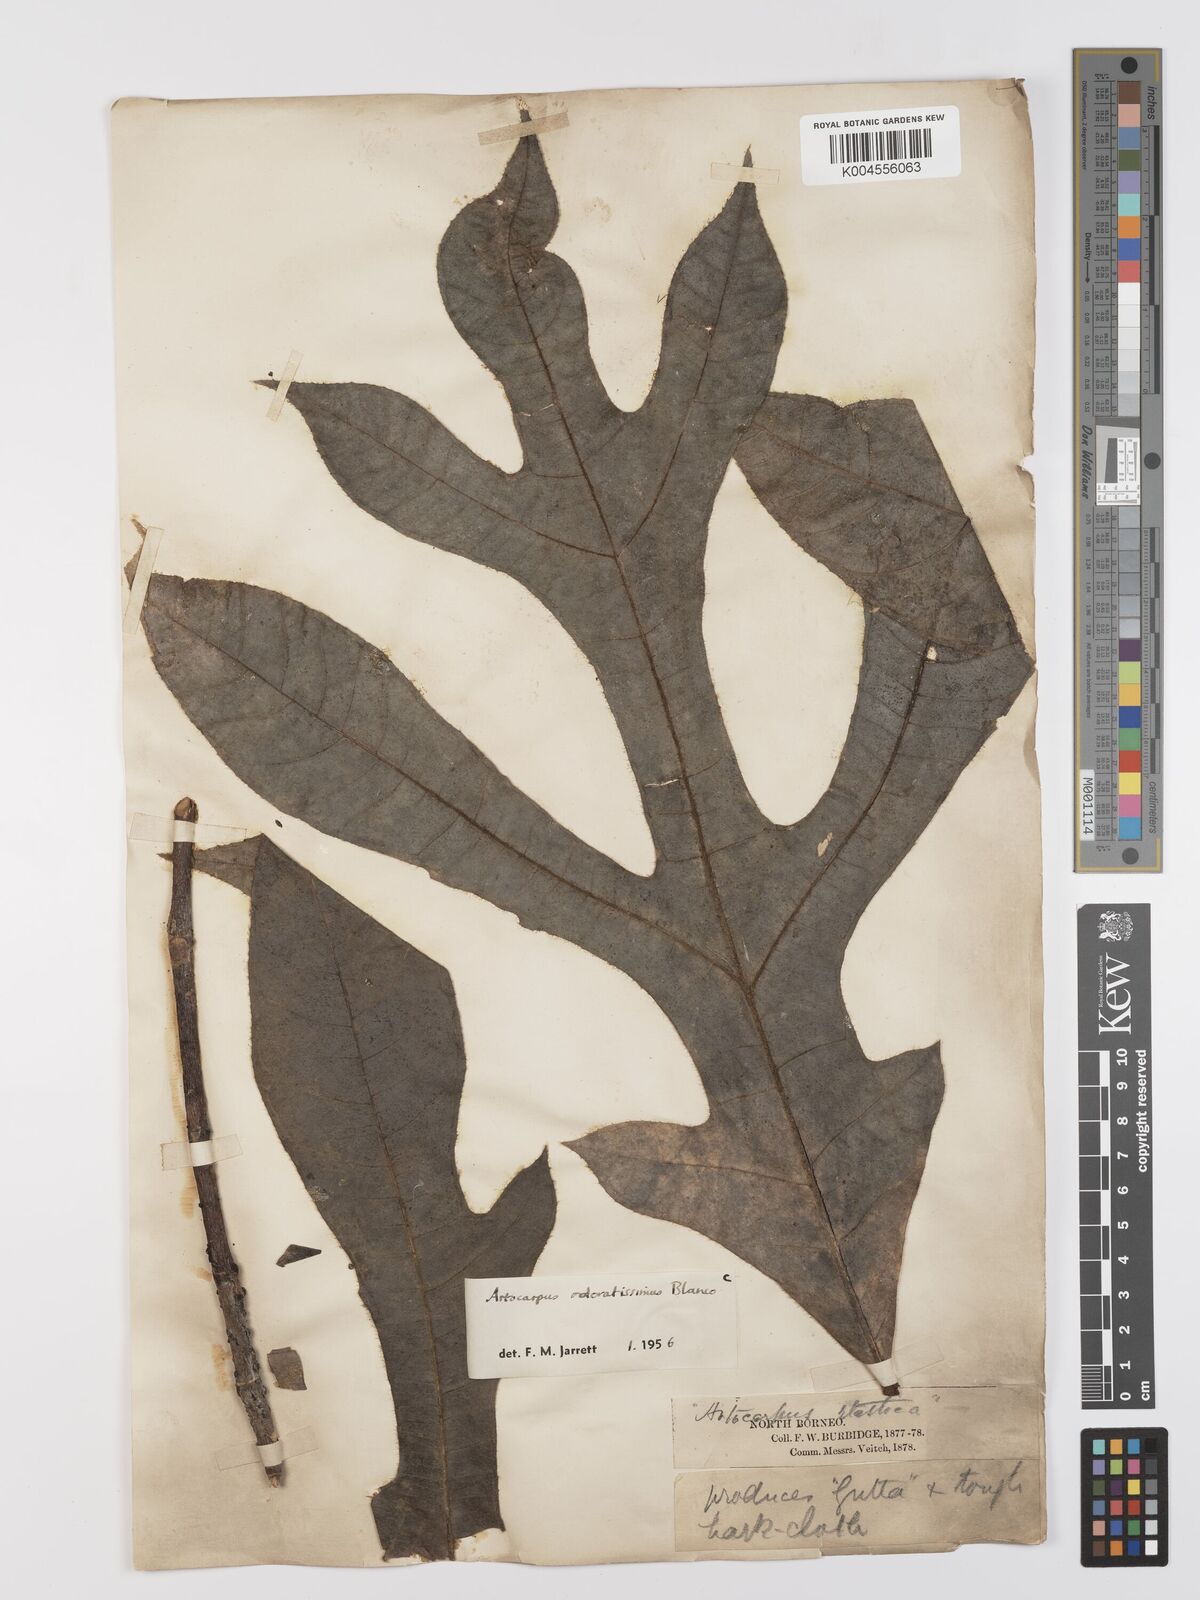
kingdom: Plantae
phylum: Tracheophyta
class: Magnoliopsida
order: Rosales
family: Moraceae
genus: Artocarpus
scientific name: Artocarpus odoratissimus
